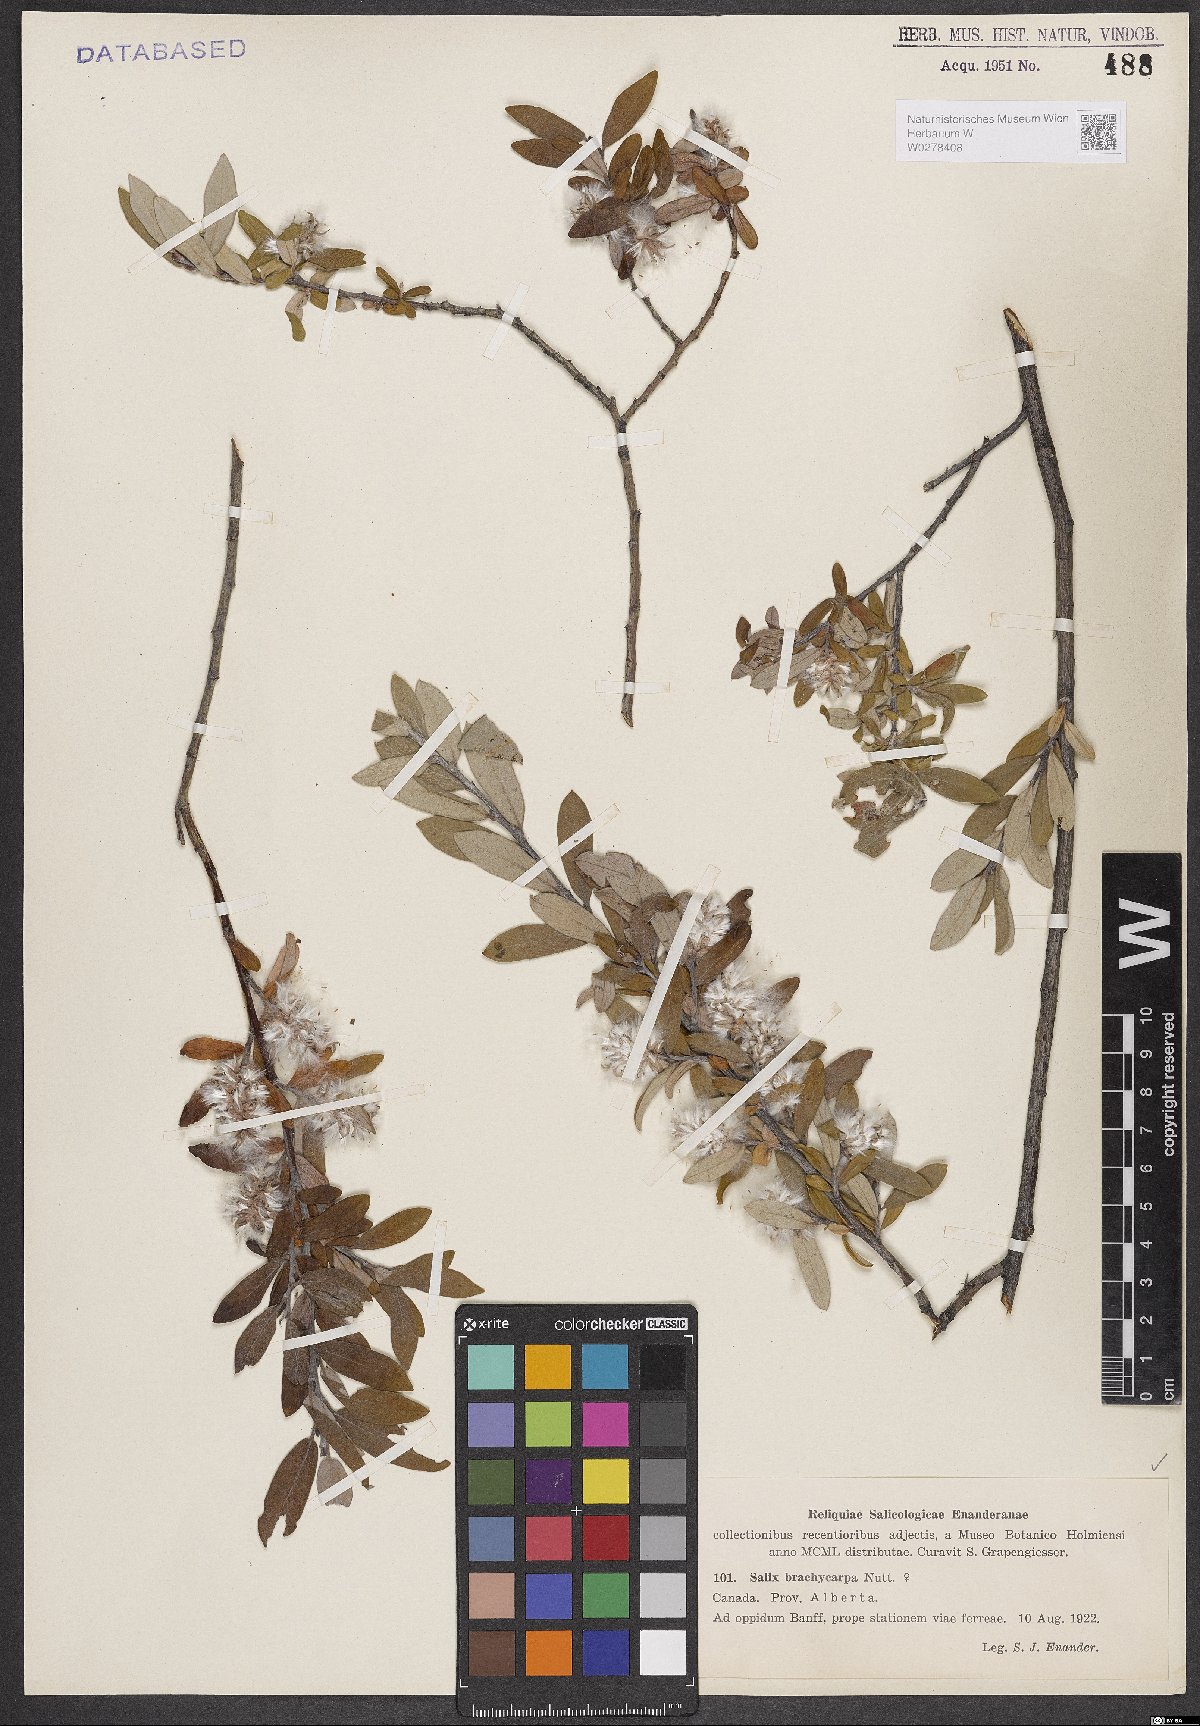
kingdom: Plantae
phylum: Tracheophyta
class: Magnoliopsida
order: Malpighiales
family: Salicaceae
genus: Salix
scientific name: Salix brachycarpa
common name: Barren-ground willow
